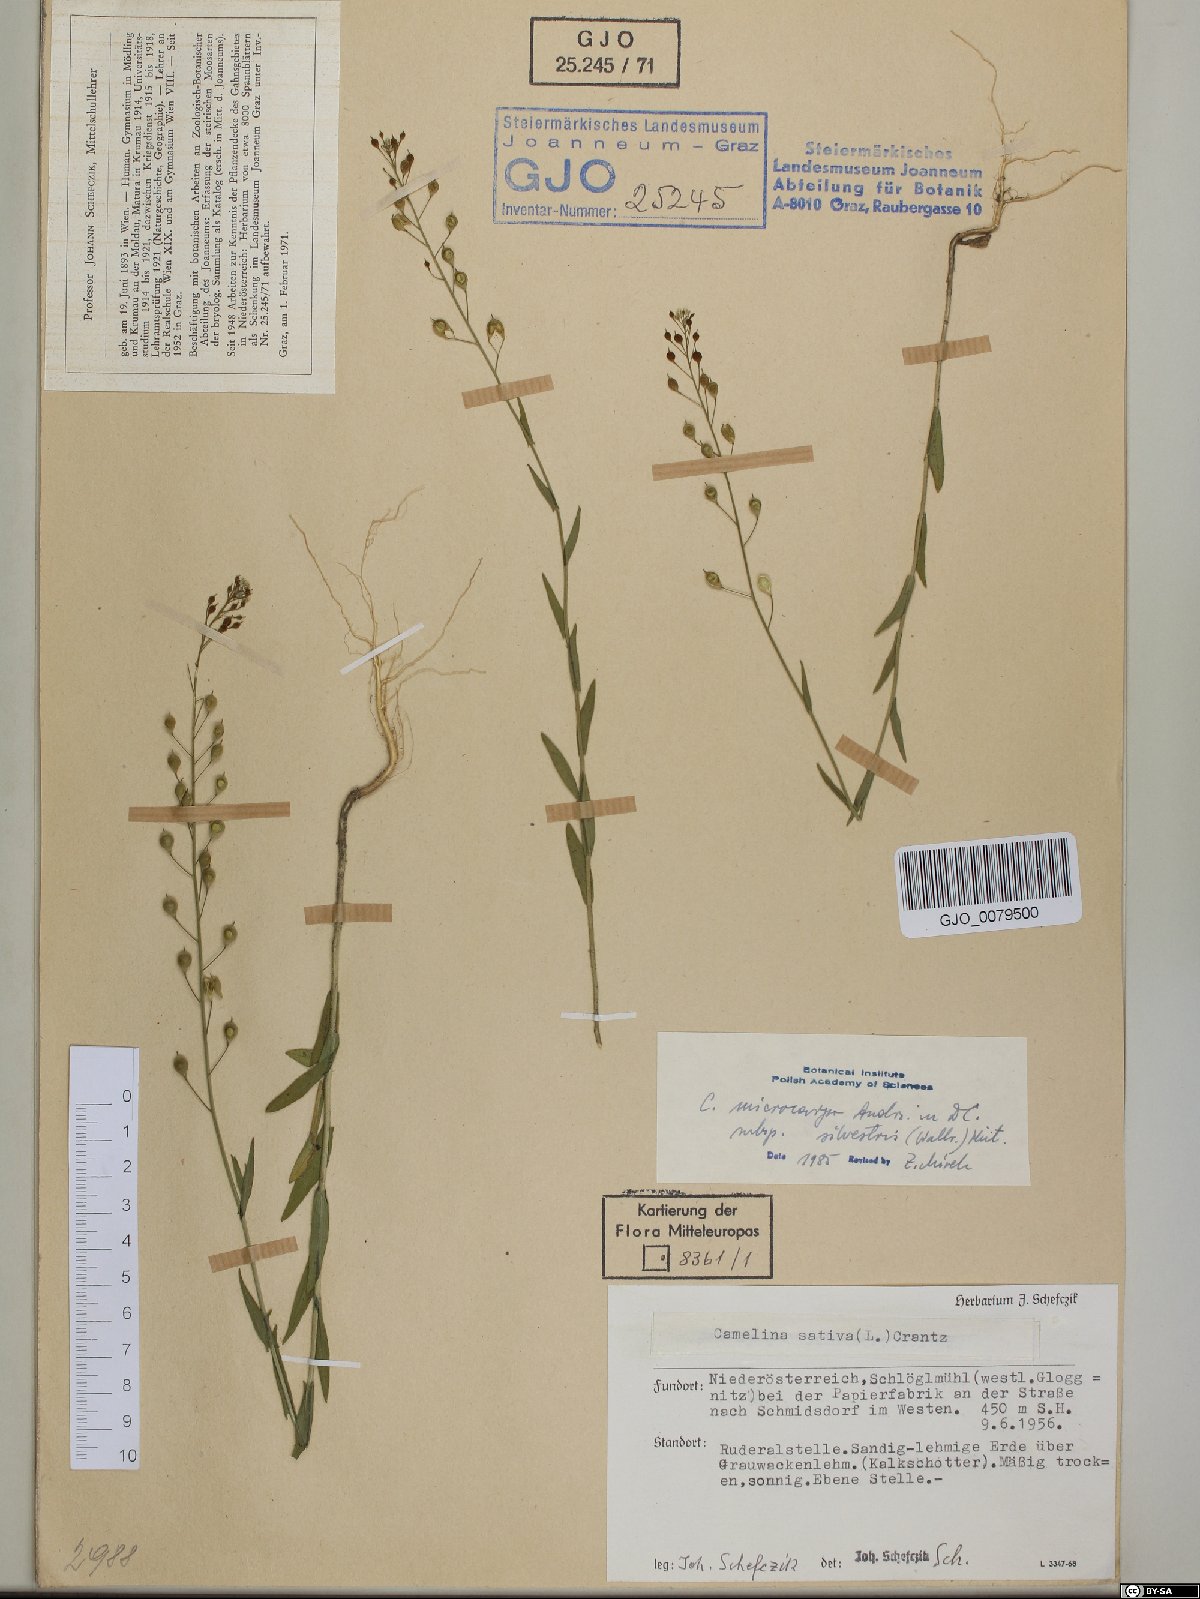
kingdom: Plantae
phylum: Tracheophyta
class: Magnoliopsida
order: Brassicales
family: Brassicaceae
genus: Camelina
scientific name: Camelina microcarpa
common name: Lesser gold-of-pleasure
